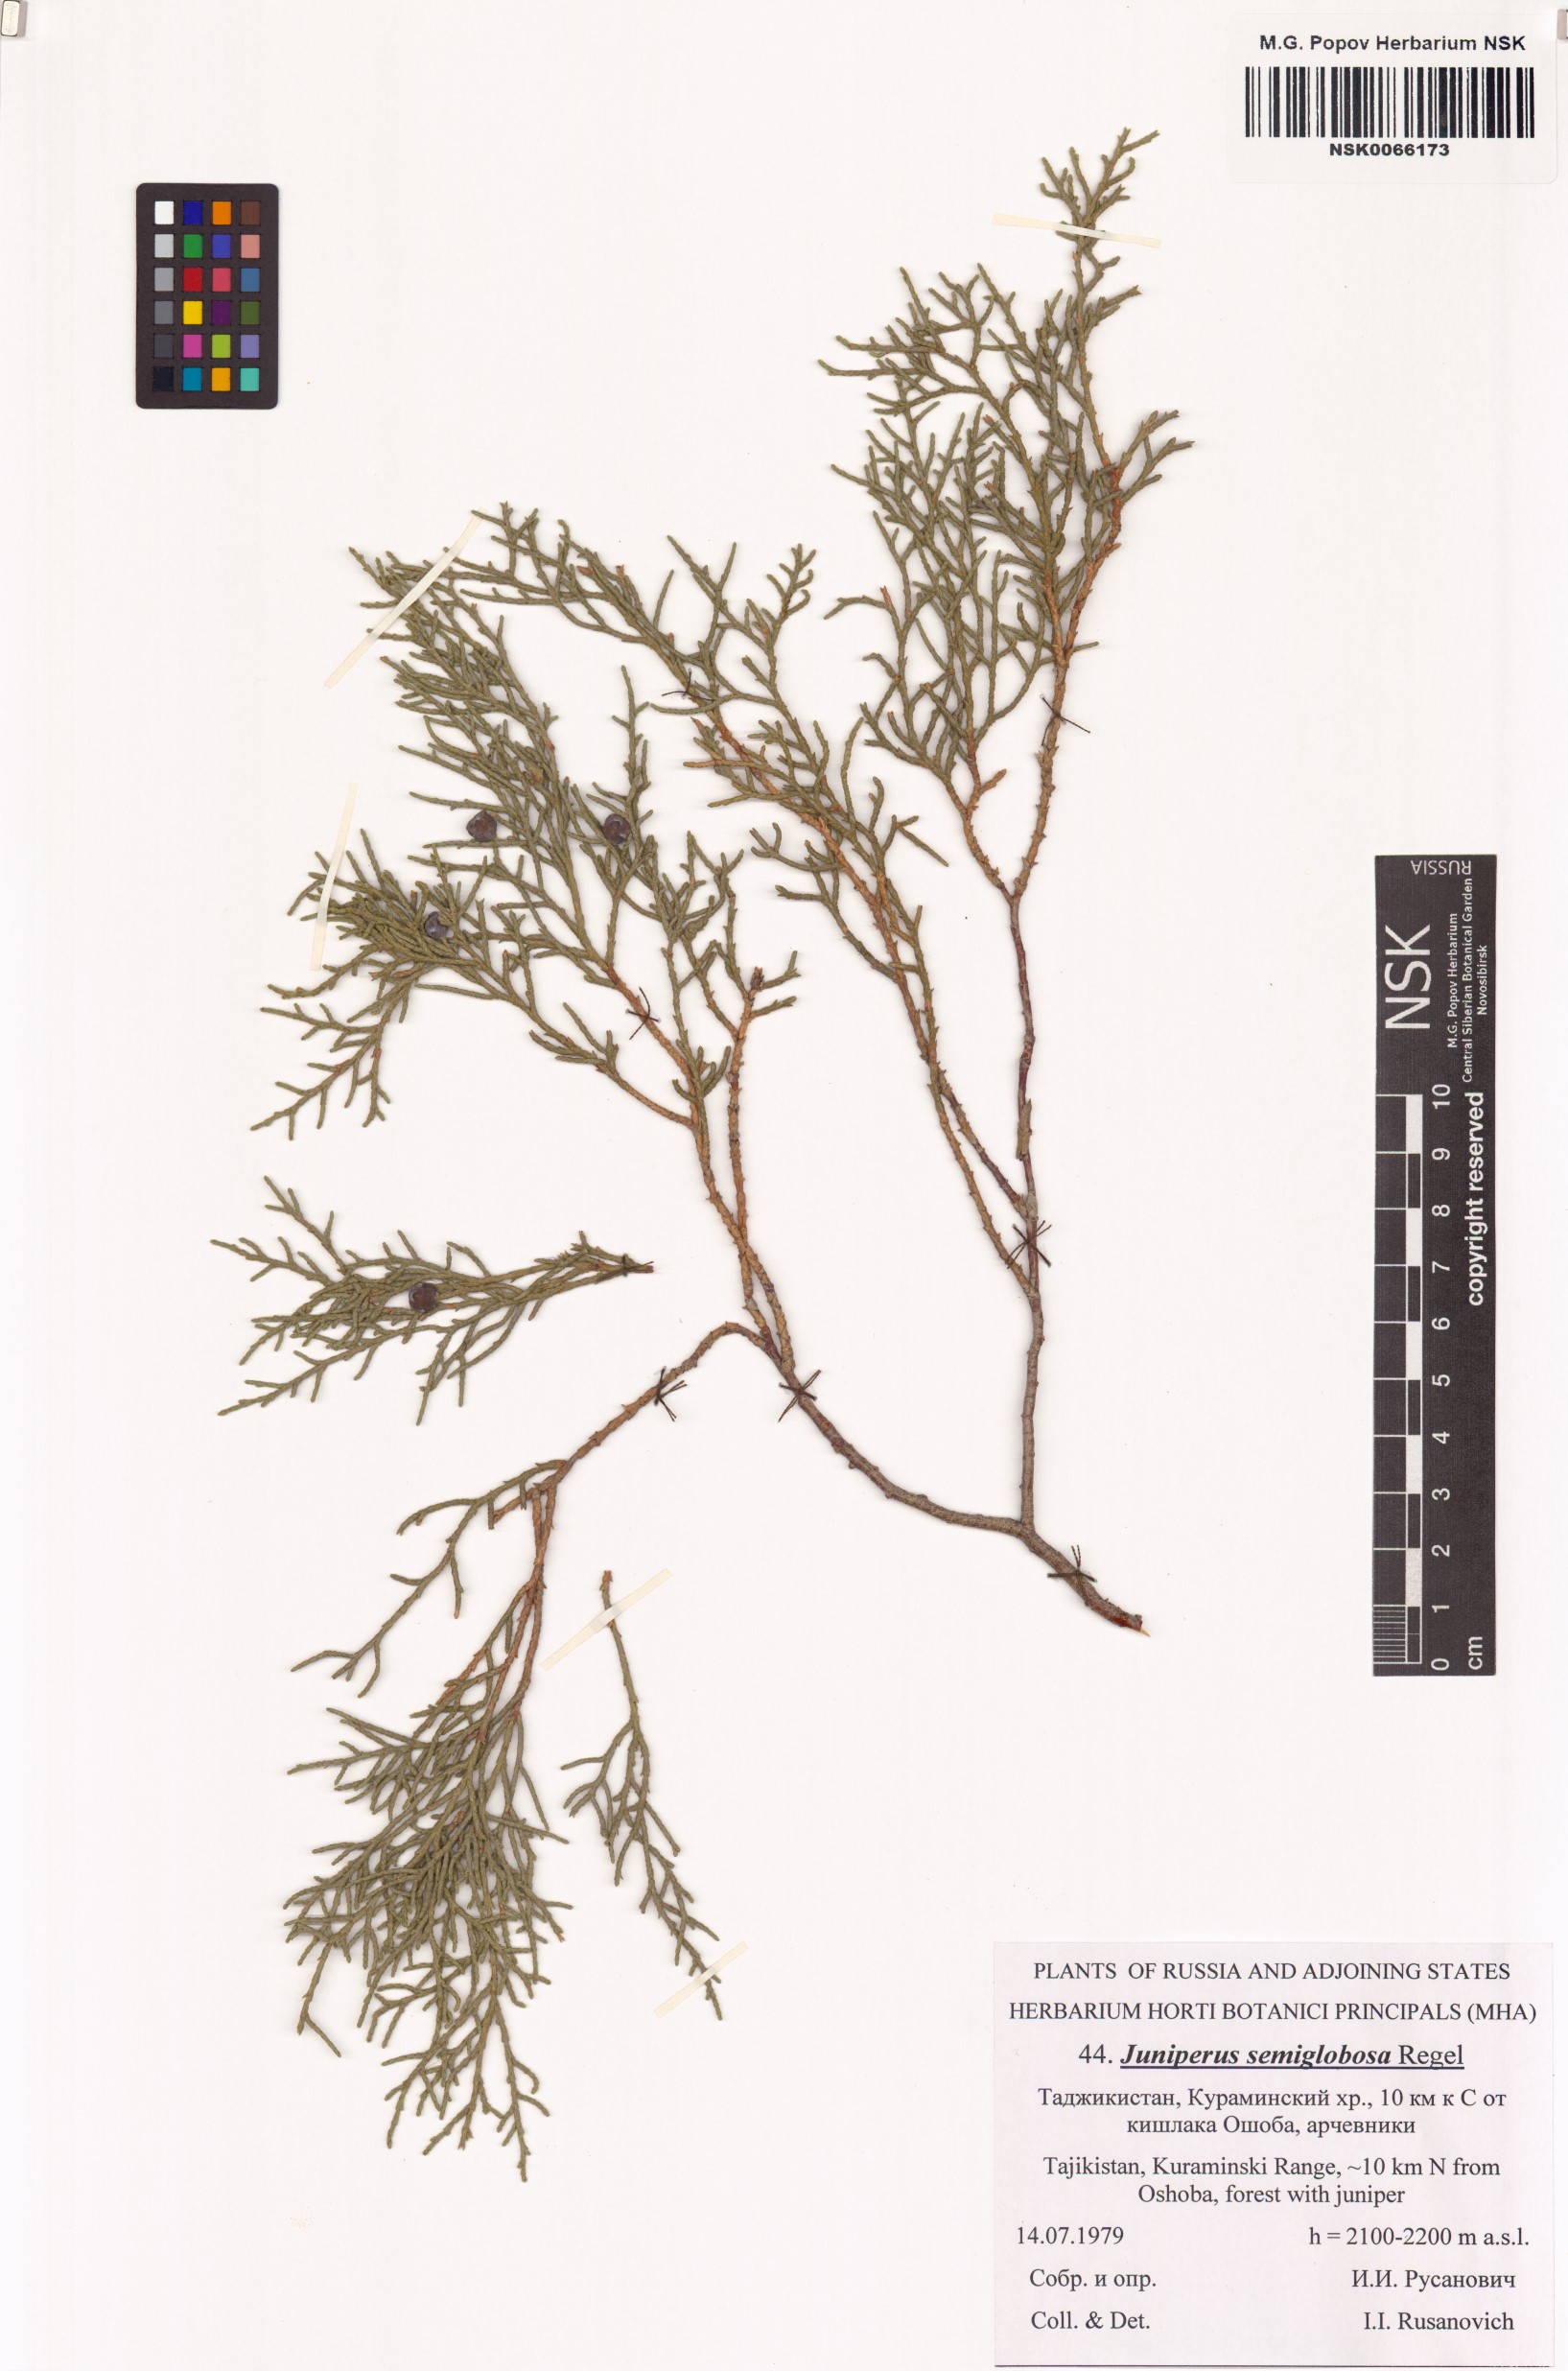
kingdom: Plantae
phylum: Tracheophyta
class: Pinopsida
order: Pinales
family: Cupressaceae
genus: Juniperus
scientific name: Juniperus semiglobosa
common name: Pencil cedar
